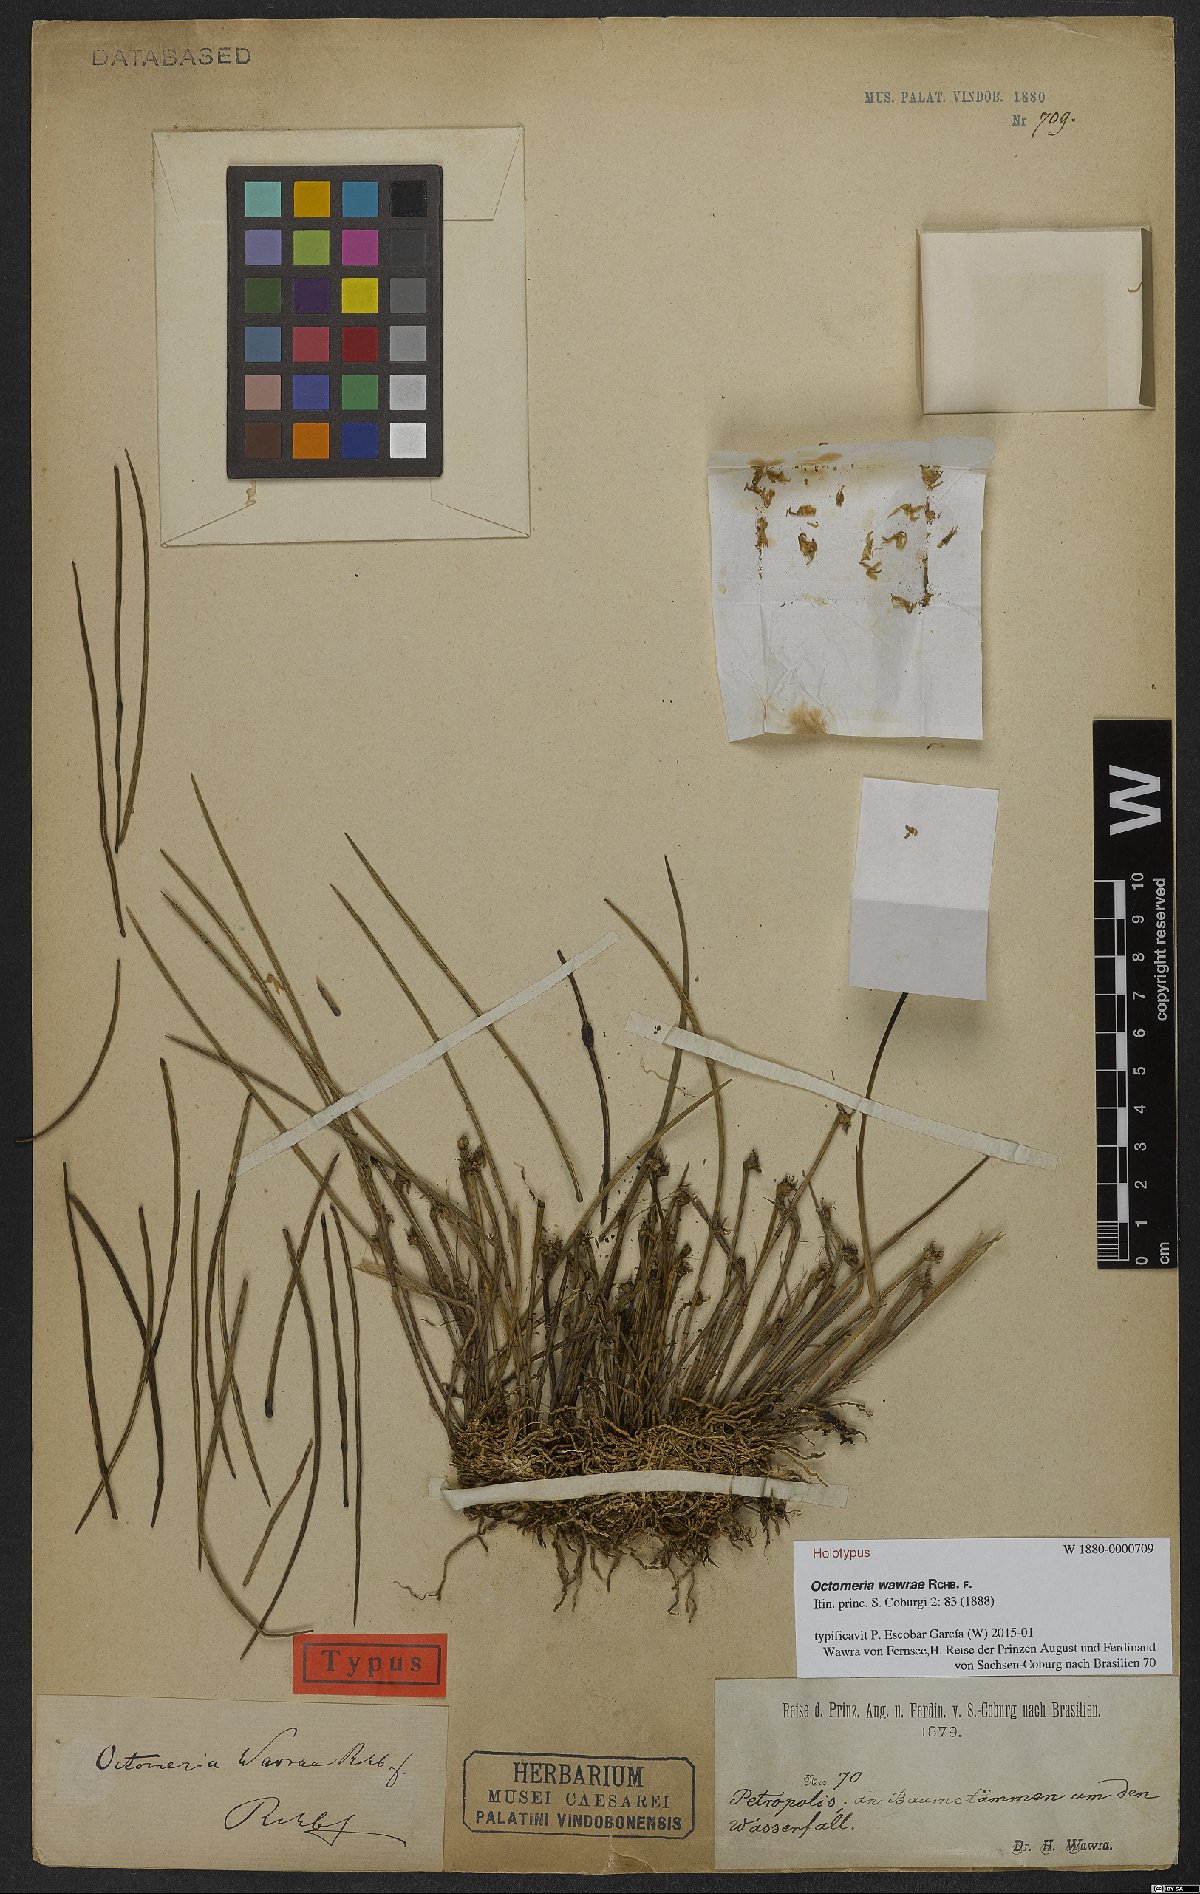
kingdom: Plantae
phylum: Tracheophyta
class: Liliopsida
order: Asparagales
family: Orchidaceae
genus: Octomeria
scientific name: Octomeria wawrae
